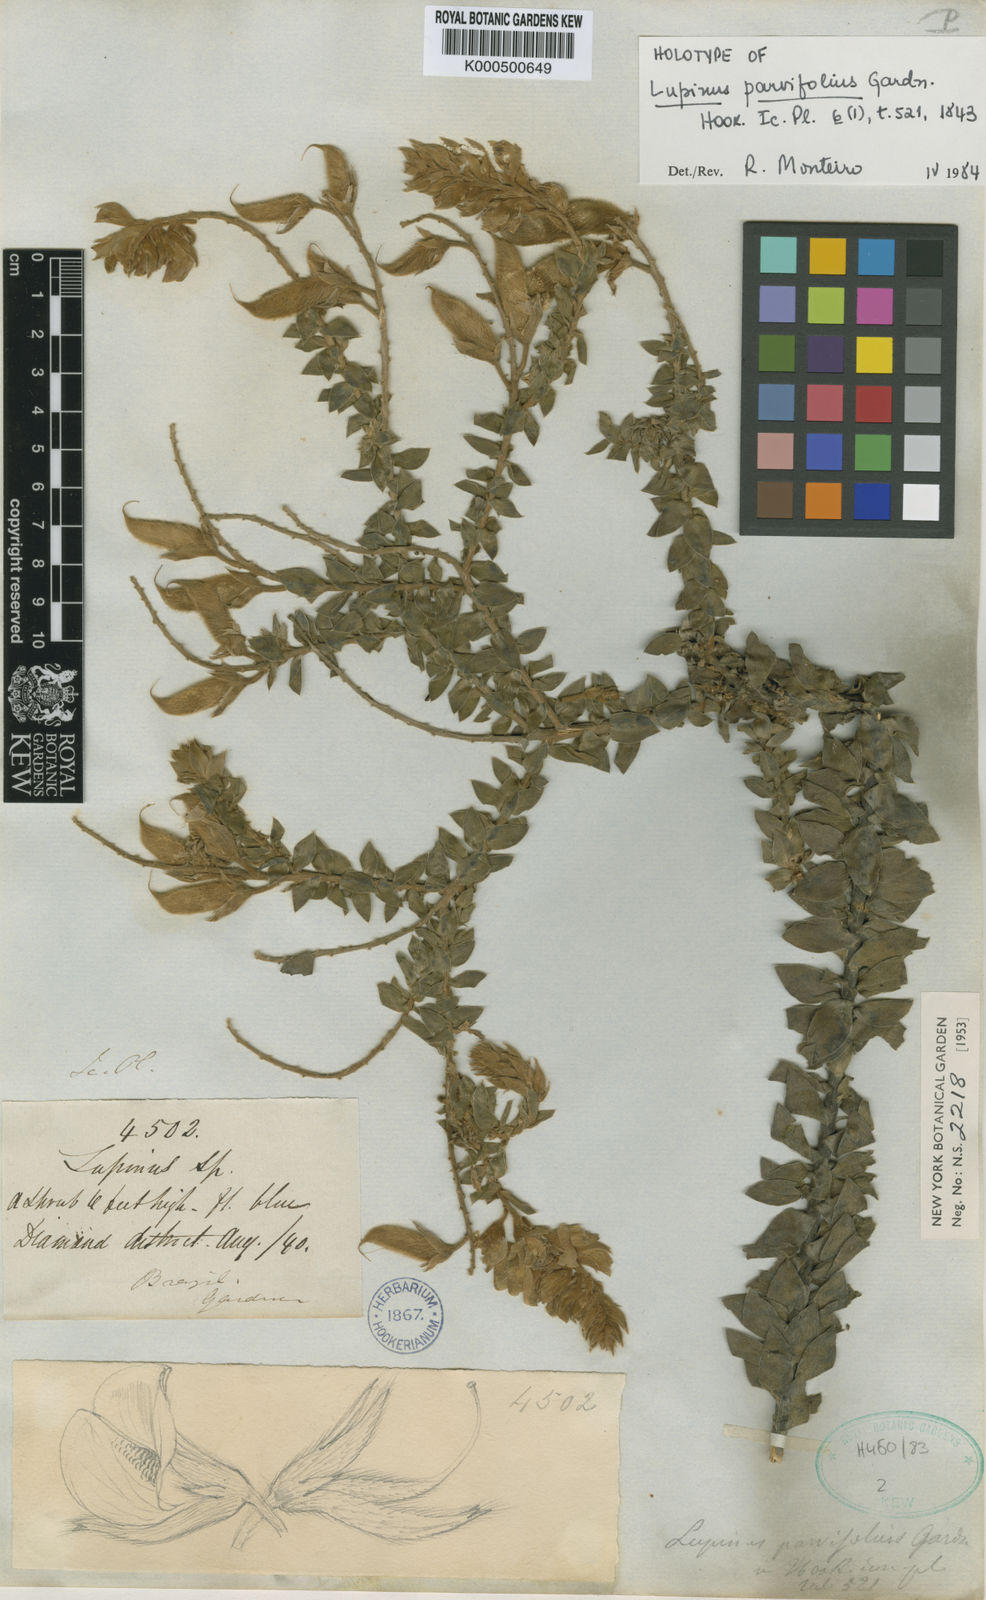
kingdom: Plantae
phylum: Tracheophyta
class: Magnoliopsida
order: Fabales
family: Fabaceae
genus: Lupinus
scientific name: Lupinus parvifolius
